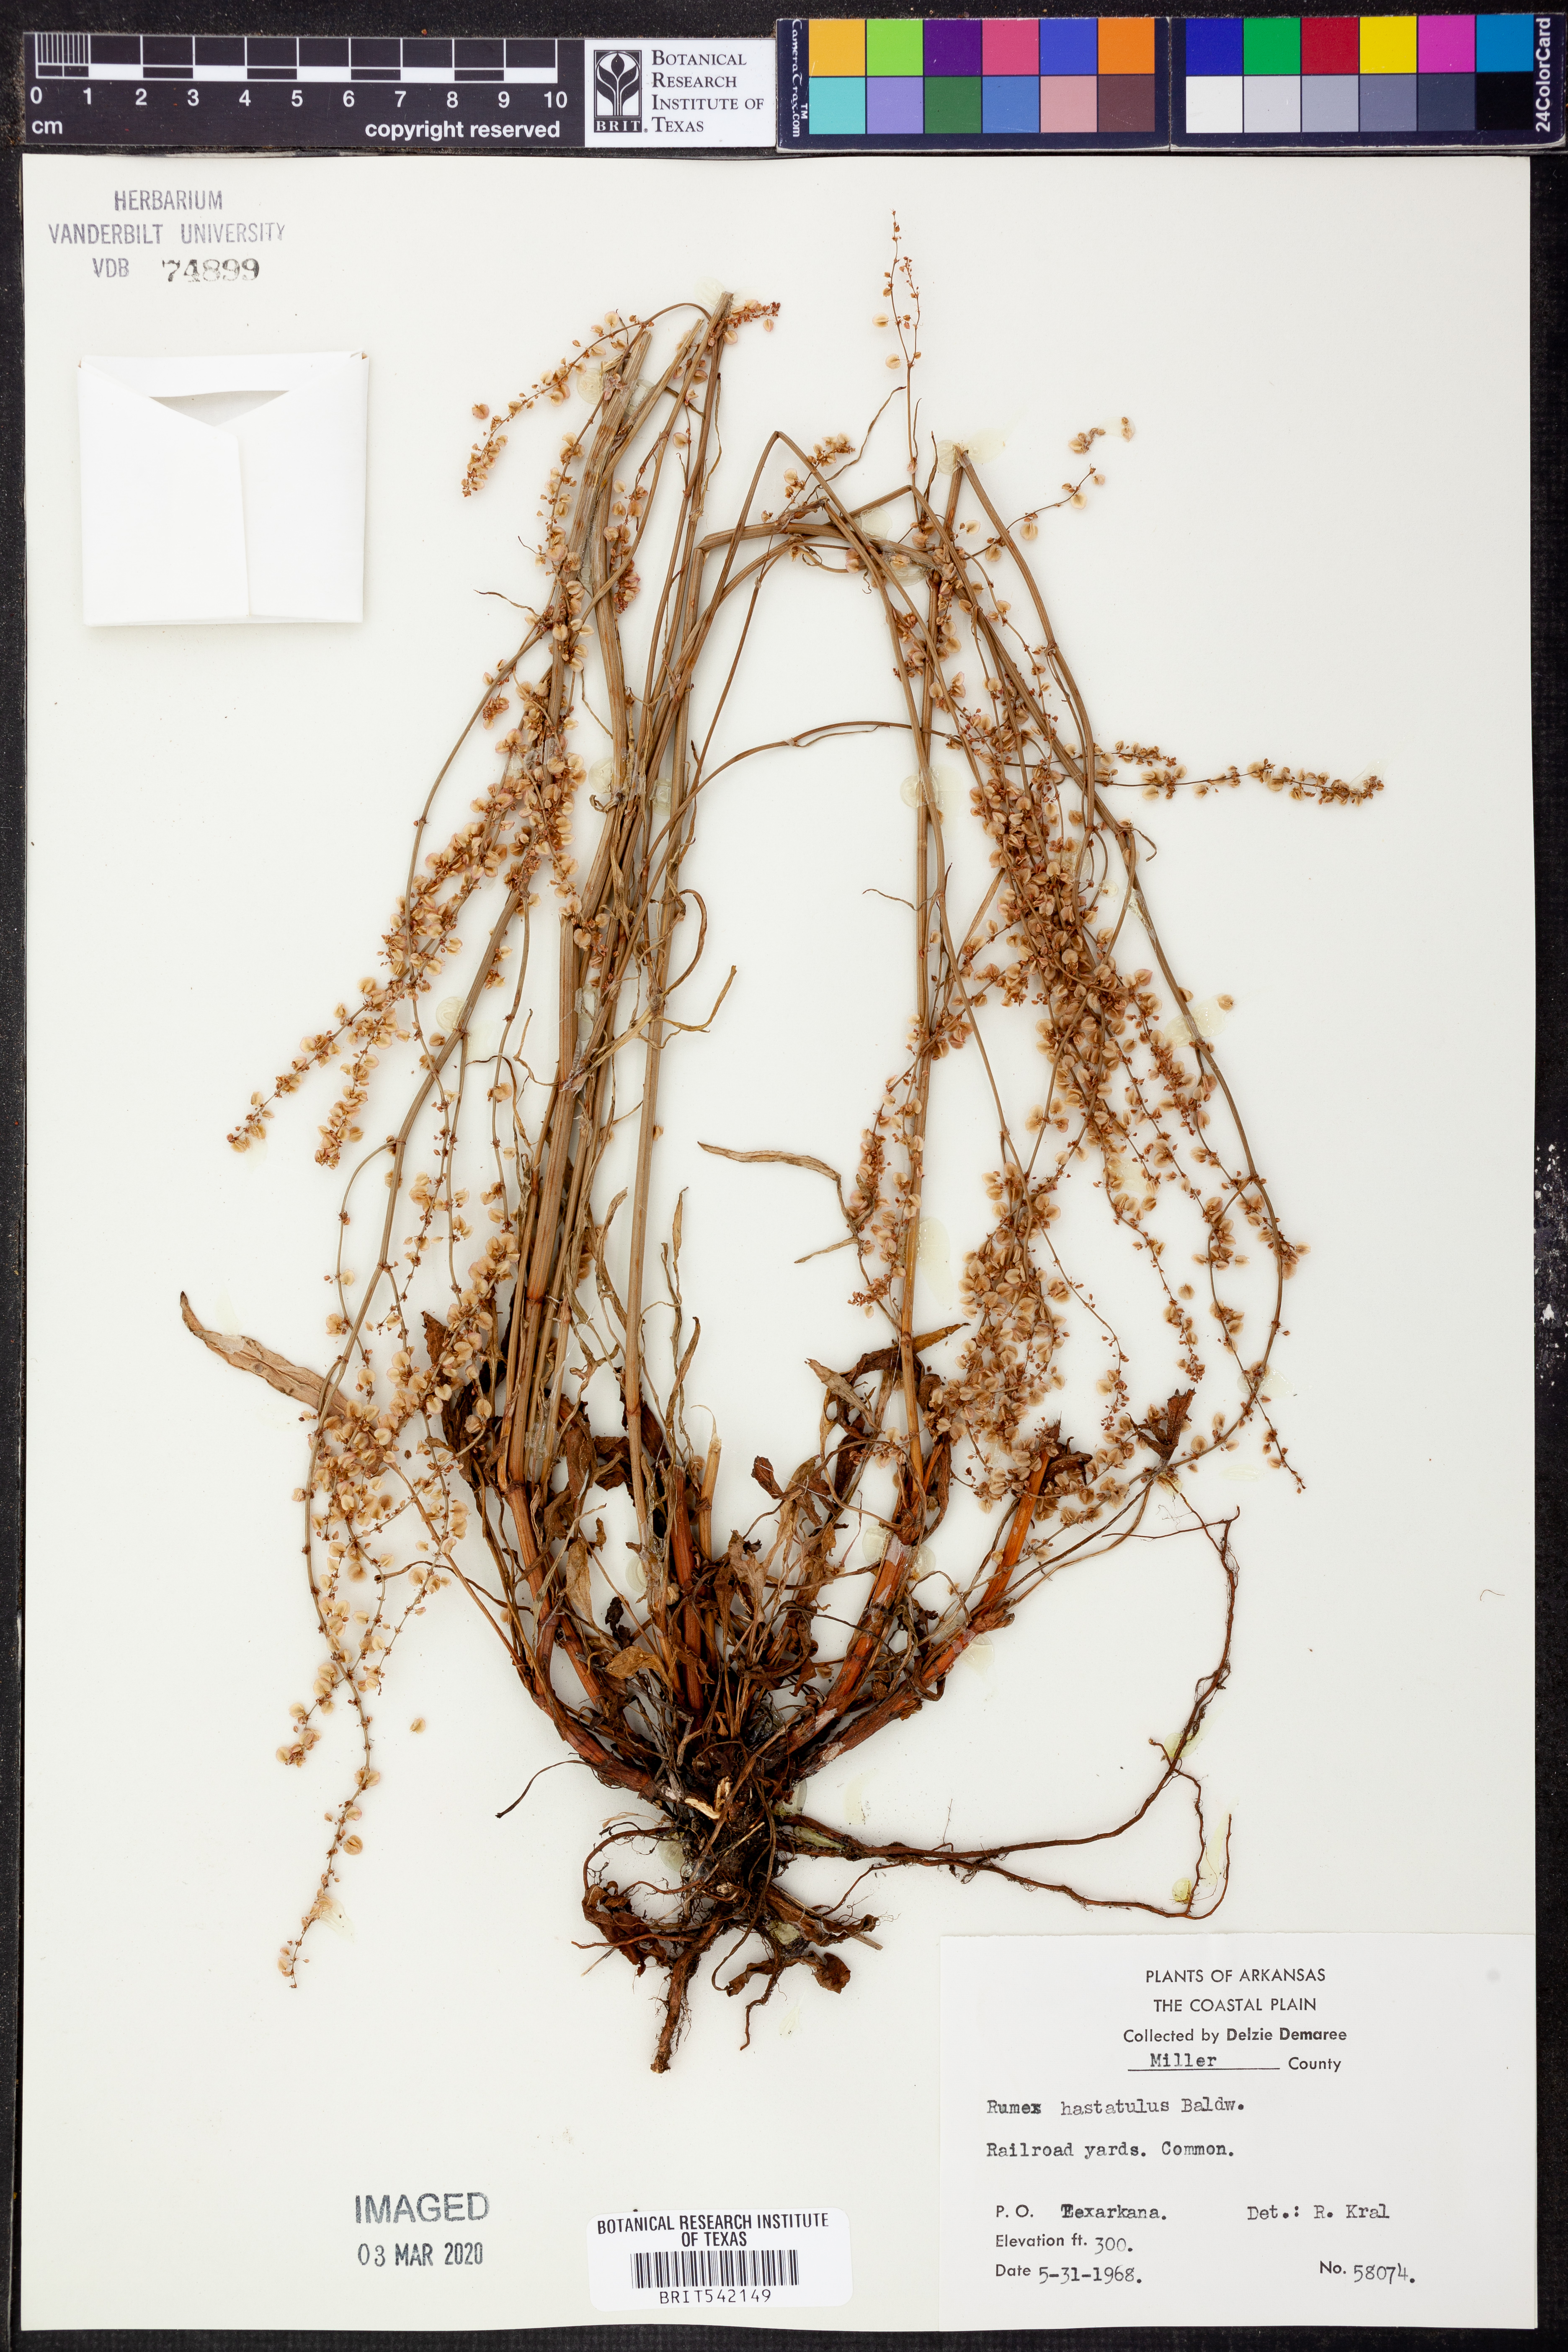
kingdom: Plantae
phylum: Tracheophyta
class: Magnoliopsida
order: Caryophyllales
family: Polygonaceae
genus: Rumex
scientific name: Rumex hastatulus
